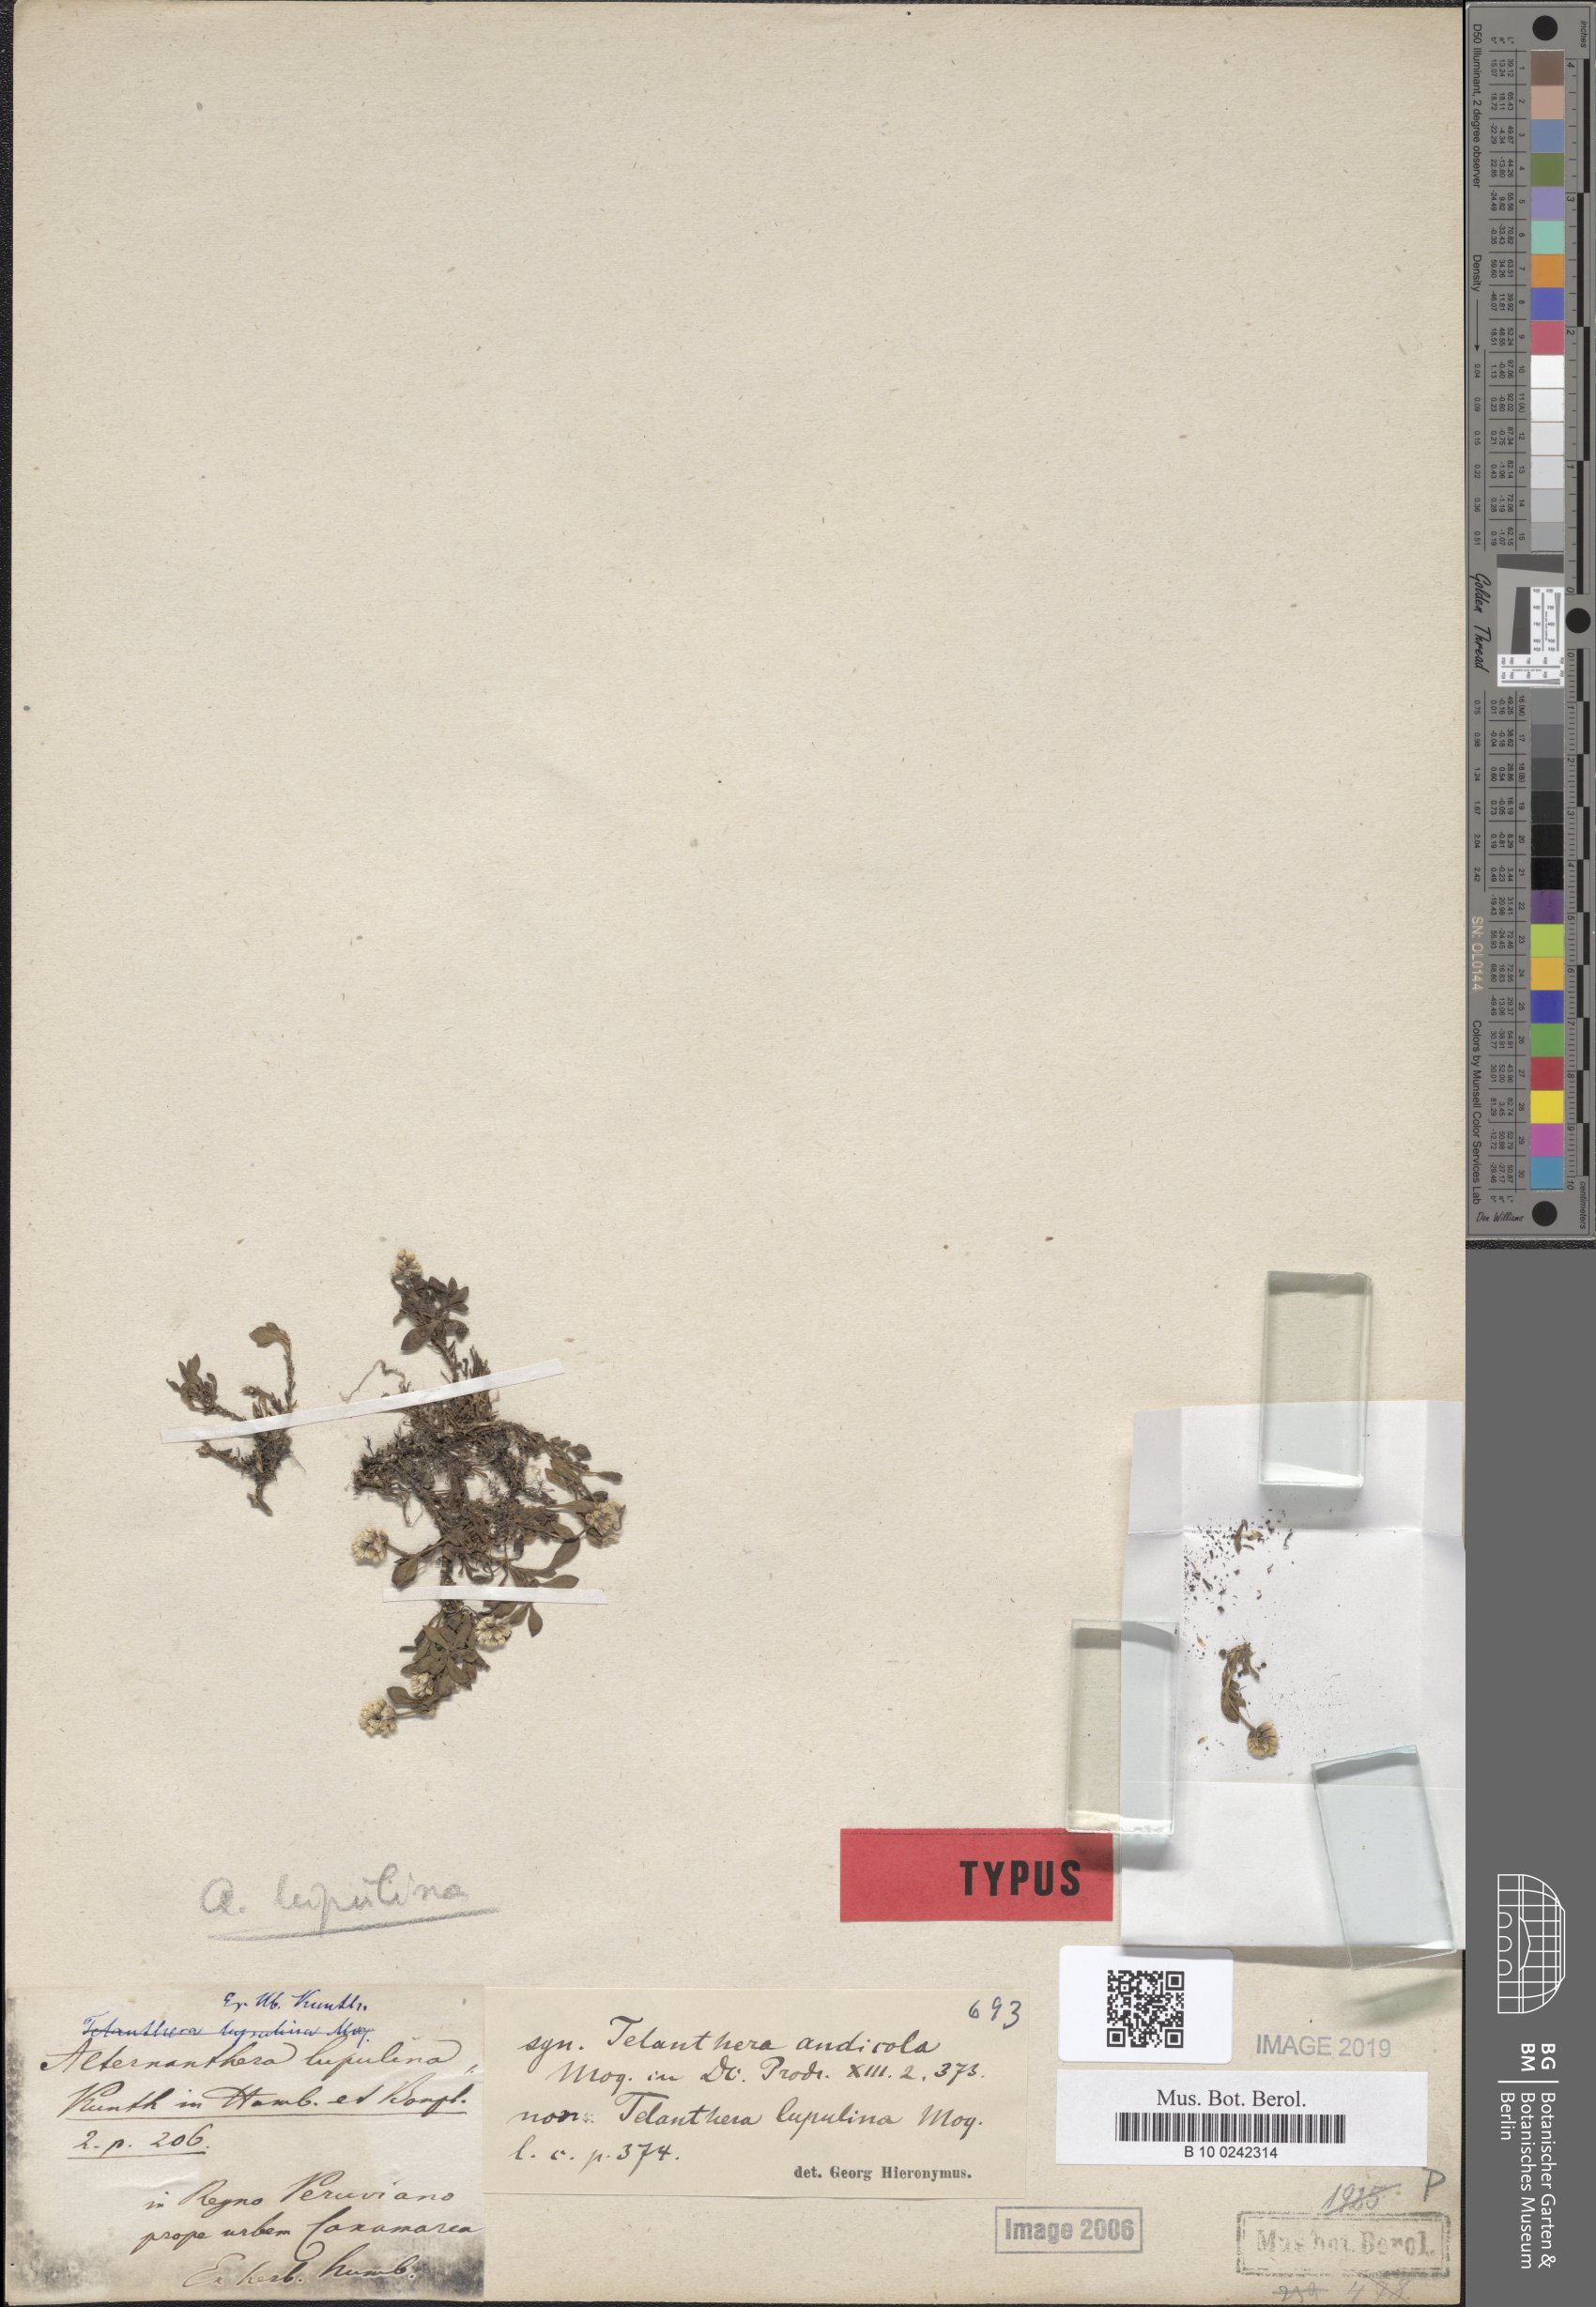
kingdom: Plantae
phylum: Tracheophyta
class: Magnoliopsida
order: Caryophyllales
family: Amaranthaceae
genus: Alternanthera
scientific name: Alternanthera lupulina
